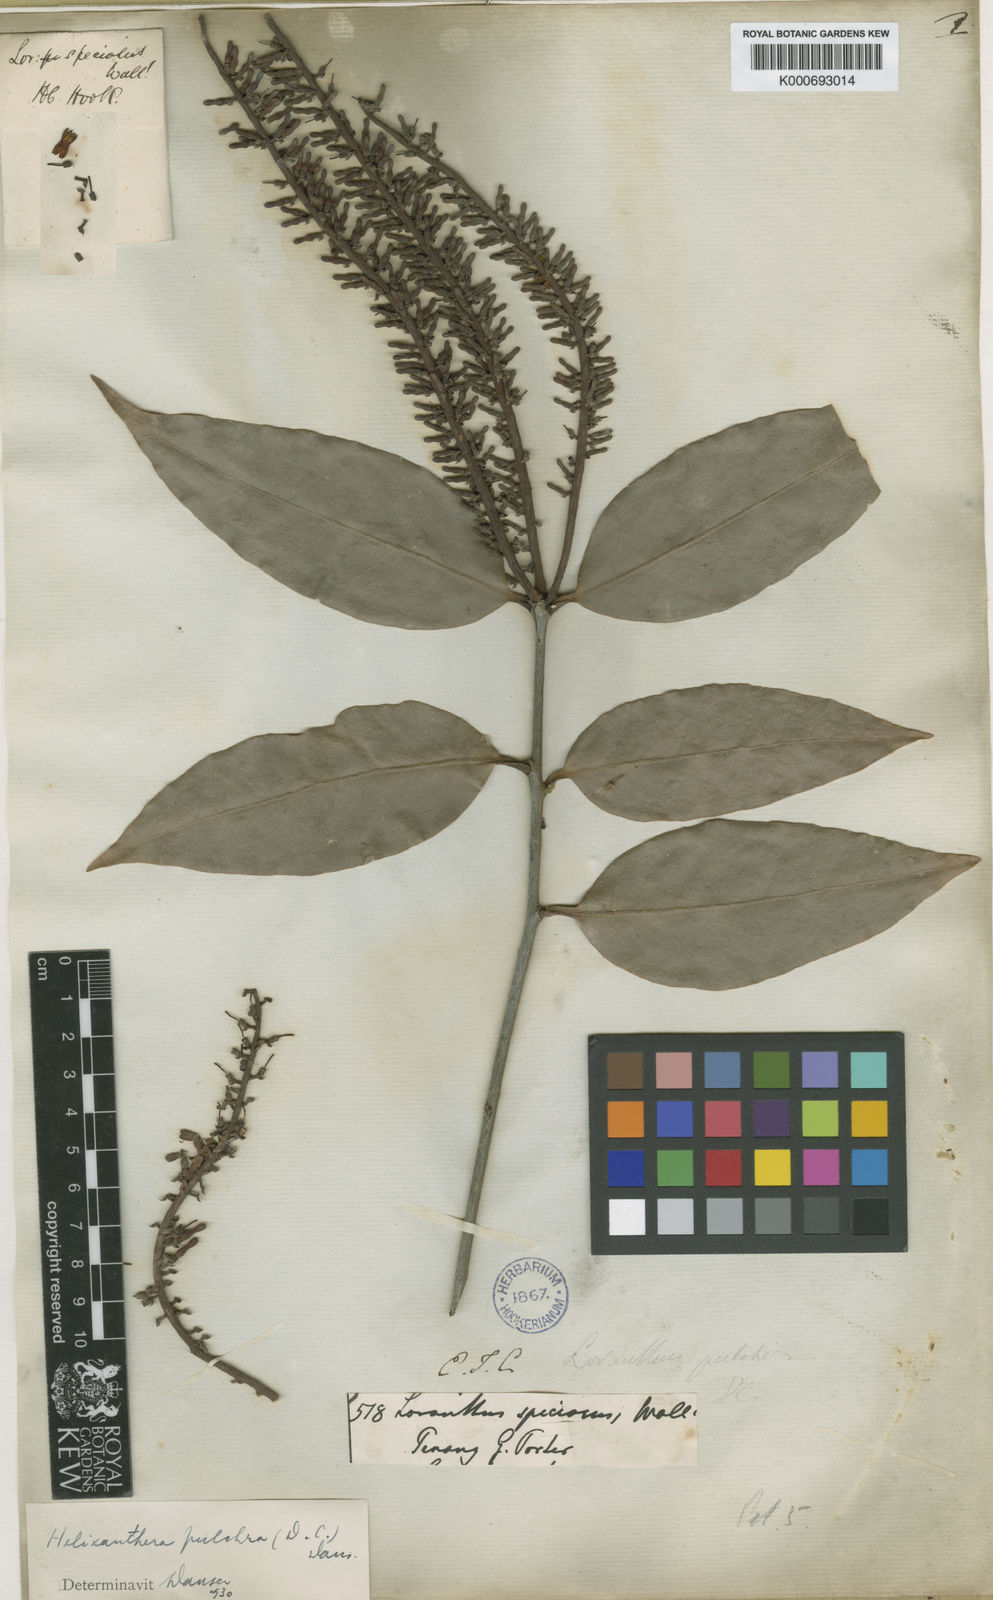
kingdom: Plantae
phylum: Tracheophyta
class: Magnoliopsida
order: Santalales
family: Loranthaceae
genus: Helixanthera
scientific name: Helixanthera pulchra
